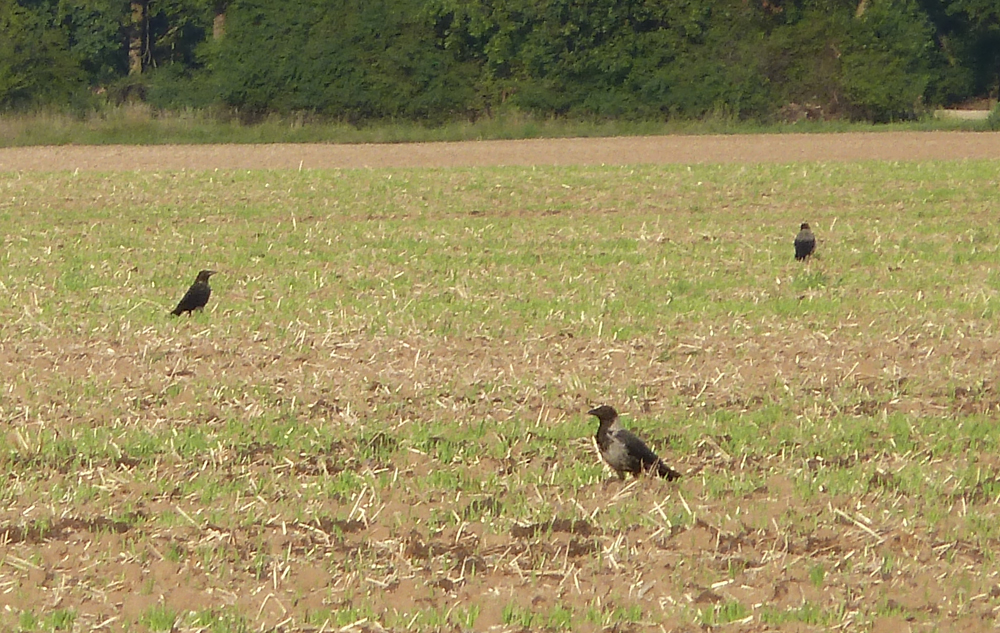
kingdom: Animalia
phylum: Chordata
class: Aves
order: Passeriformes
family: Corvidae
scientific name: Corvidae
